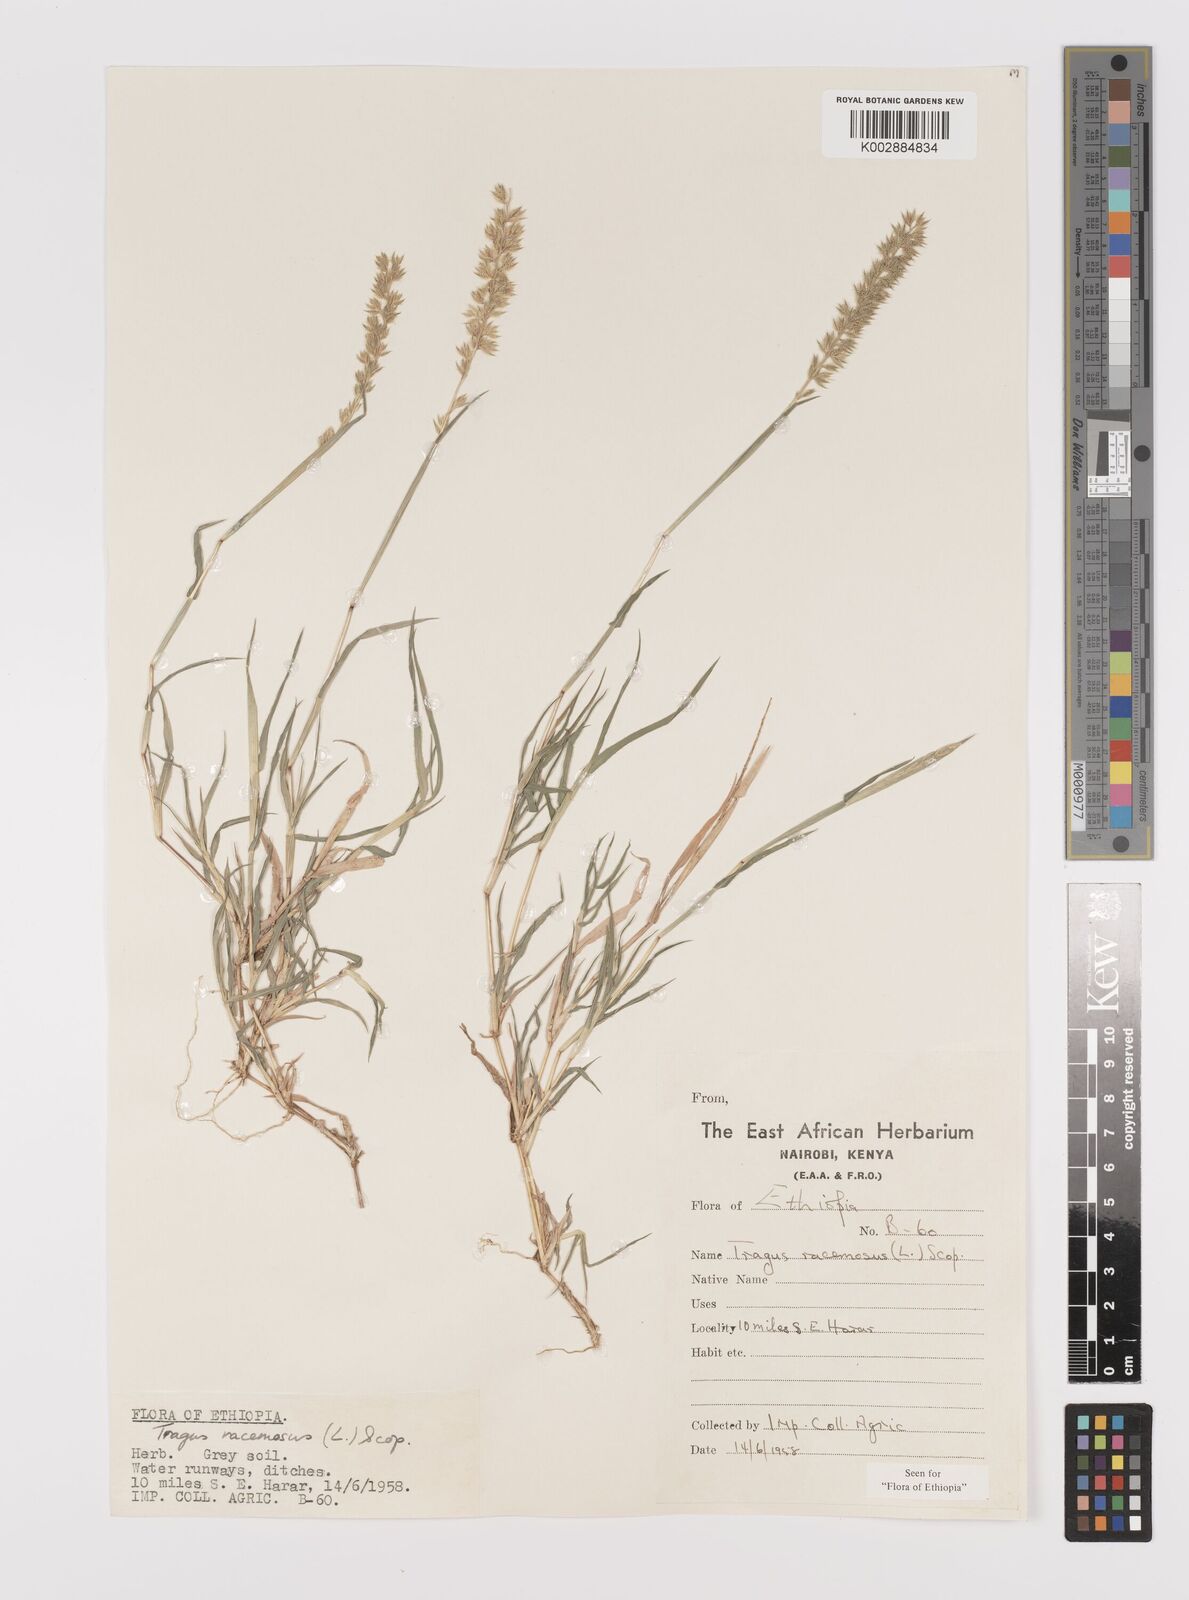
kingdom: Plantae
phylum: Tracheophyta
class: Liliopsida
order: Poales
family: Poaceae
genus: Tragus
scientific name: Tragus racemosus
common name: European bur-grass
